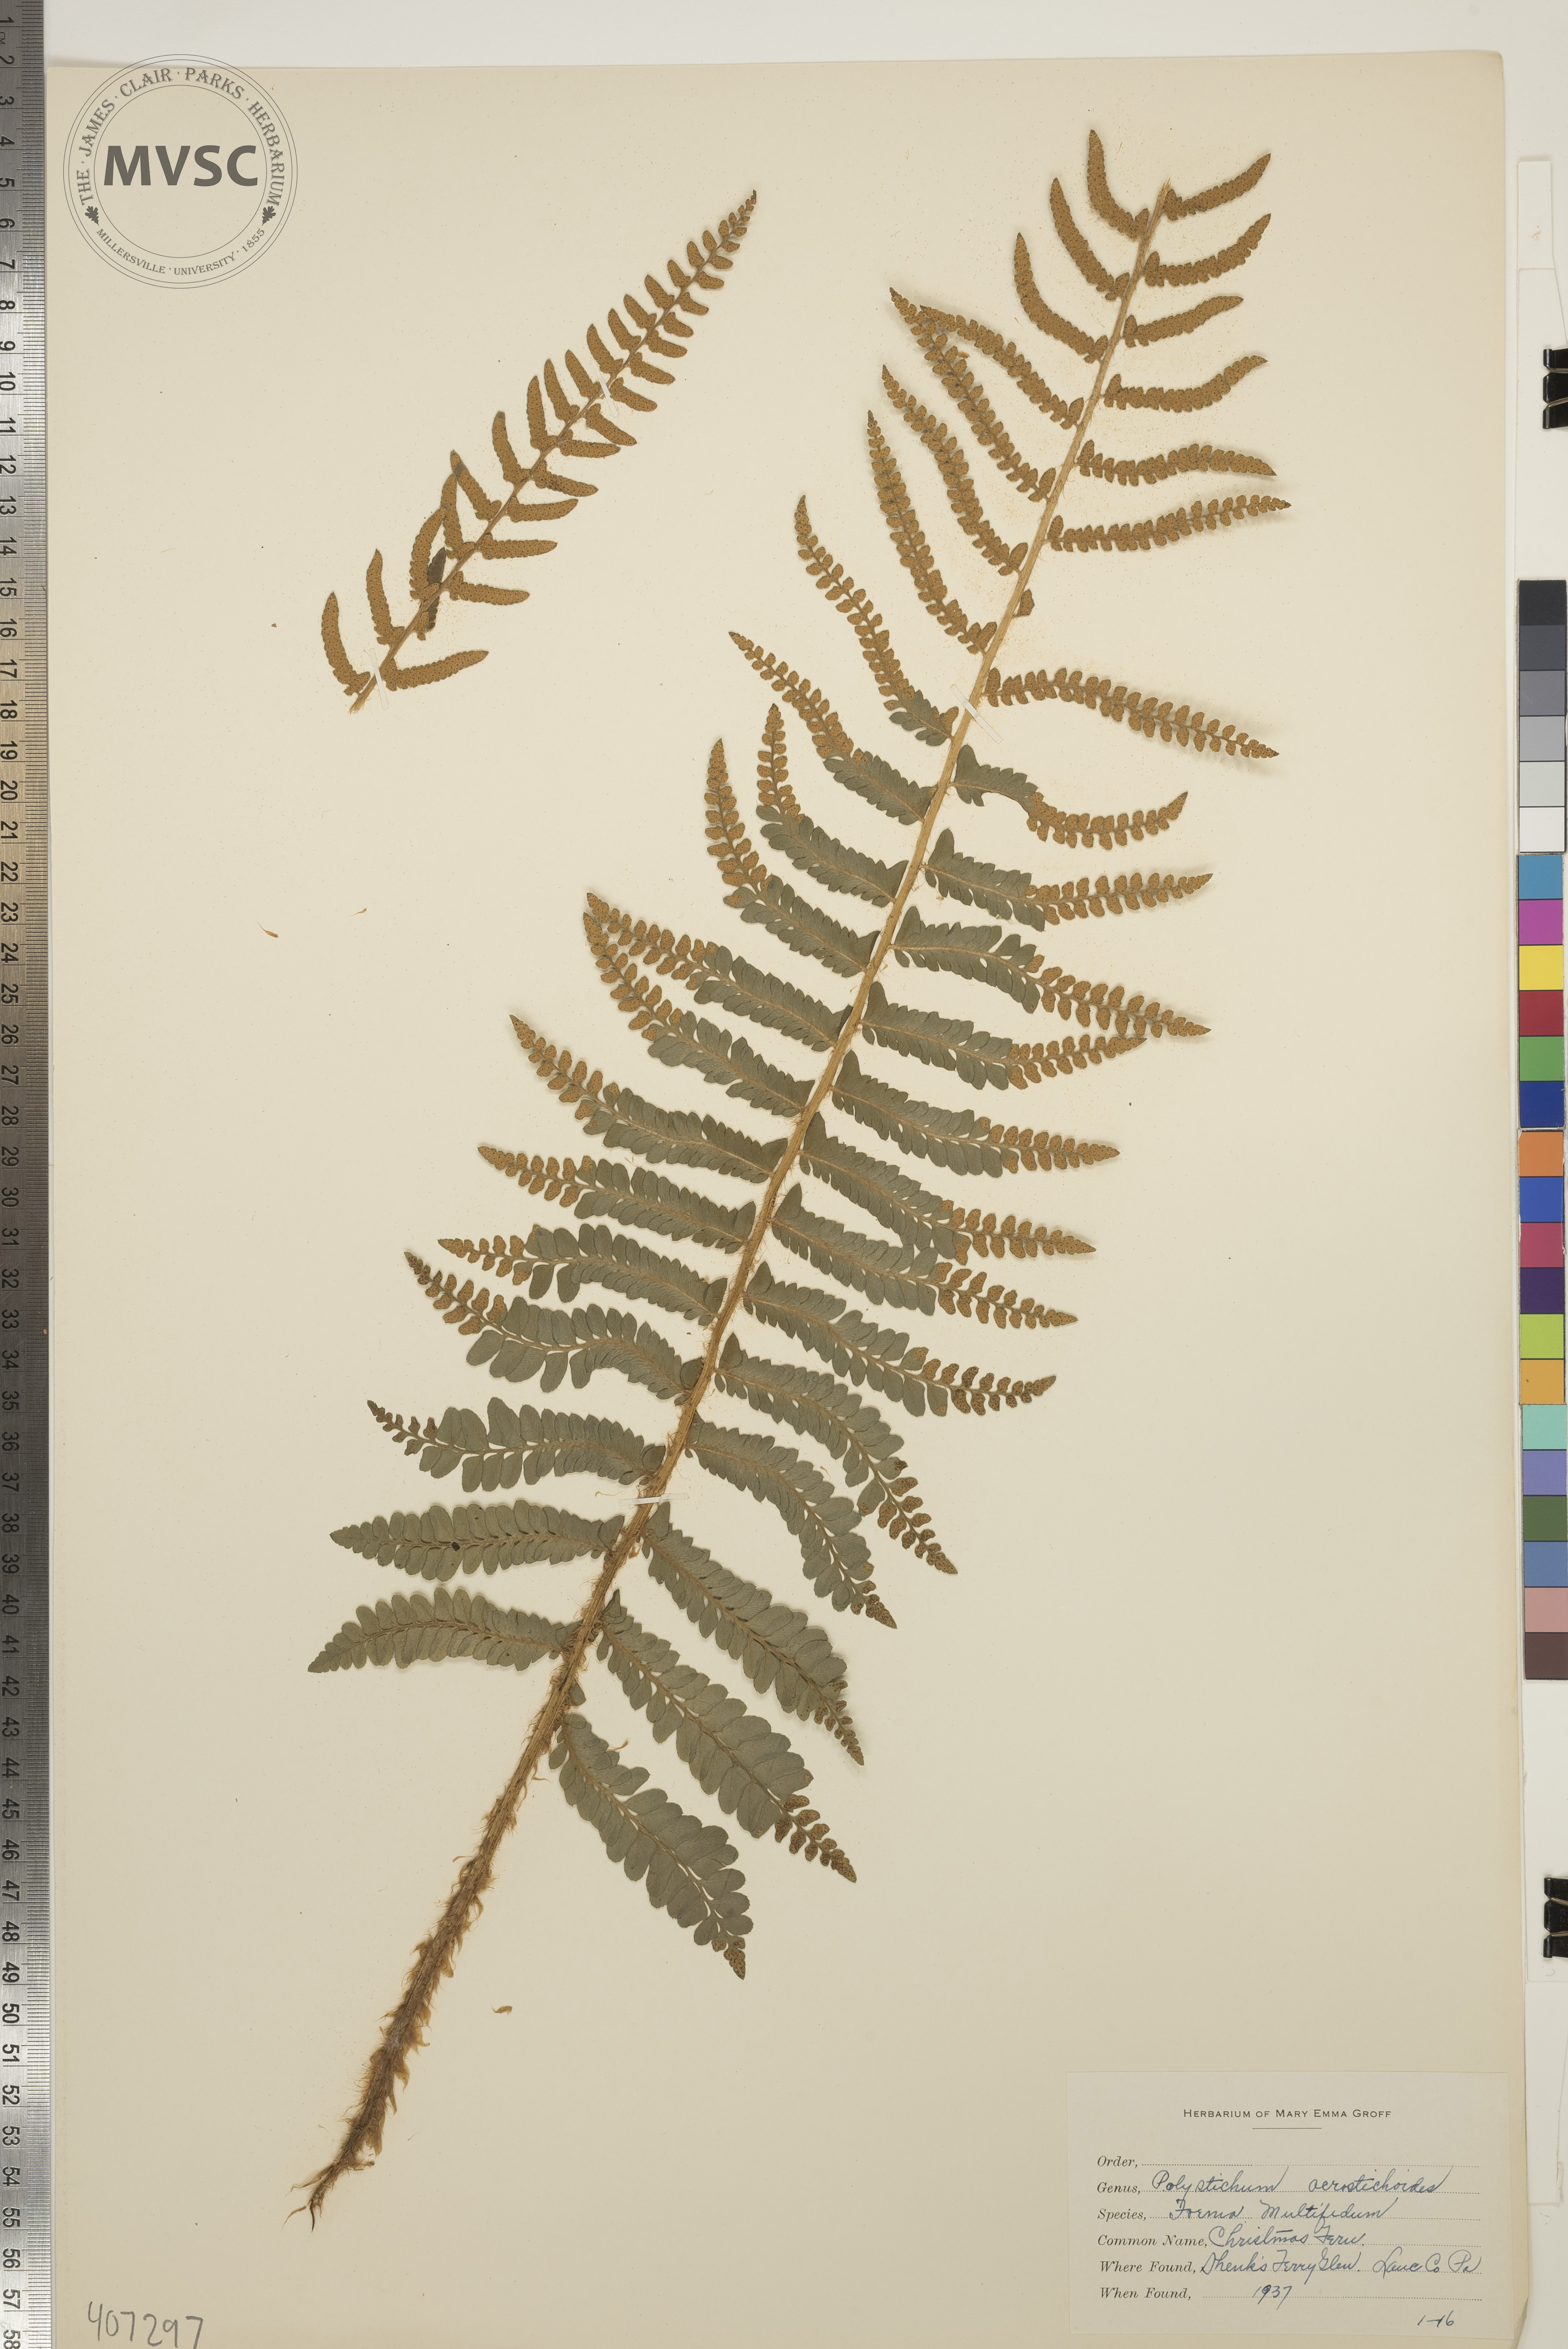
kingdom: Plantae
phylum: Tracheophyta
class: Polypodiopsida
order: Polypodiales
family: Dryopteridaceae
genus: Polystichum
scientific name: Polystichum acrostichoides
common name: Christmas Fern
